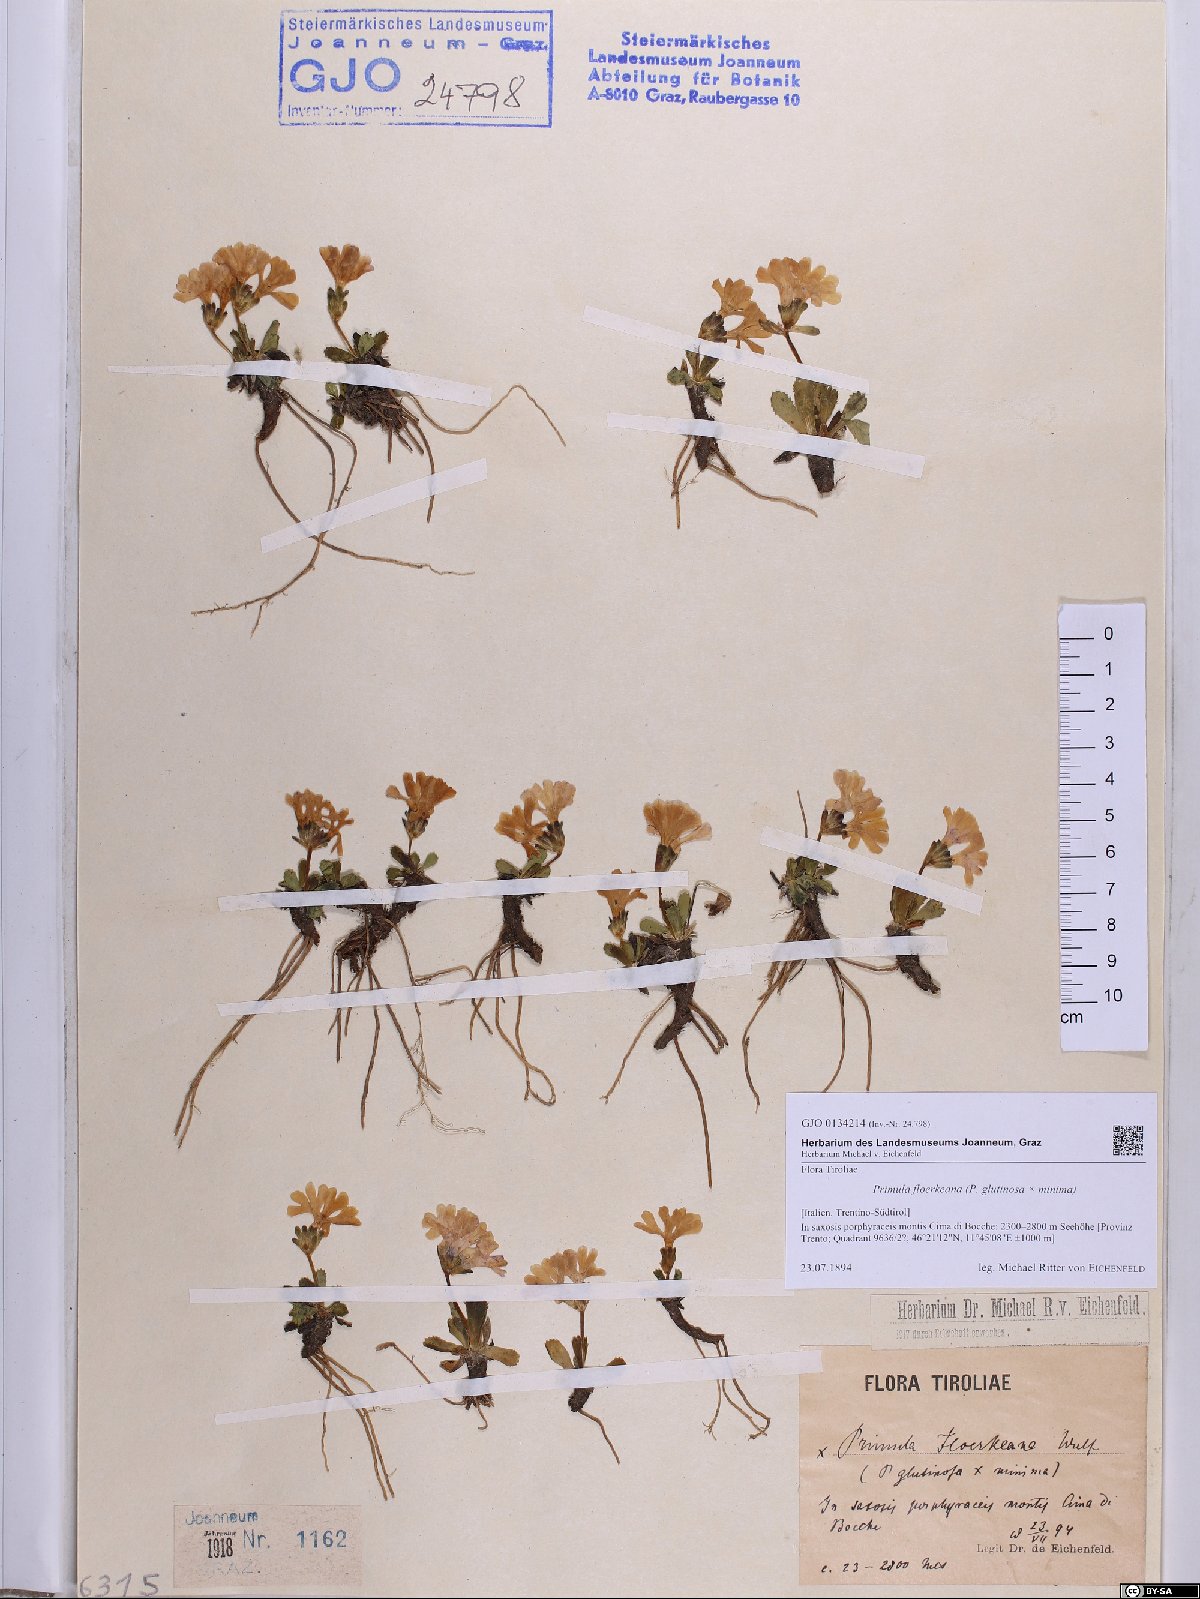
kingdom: Plantae
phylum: Tracheophyta
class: Magnoliopsida
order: Ericales
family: Primulaceae
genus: Primula
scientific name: Primula floerkeana
